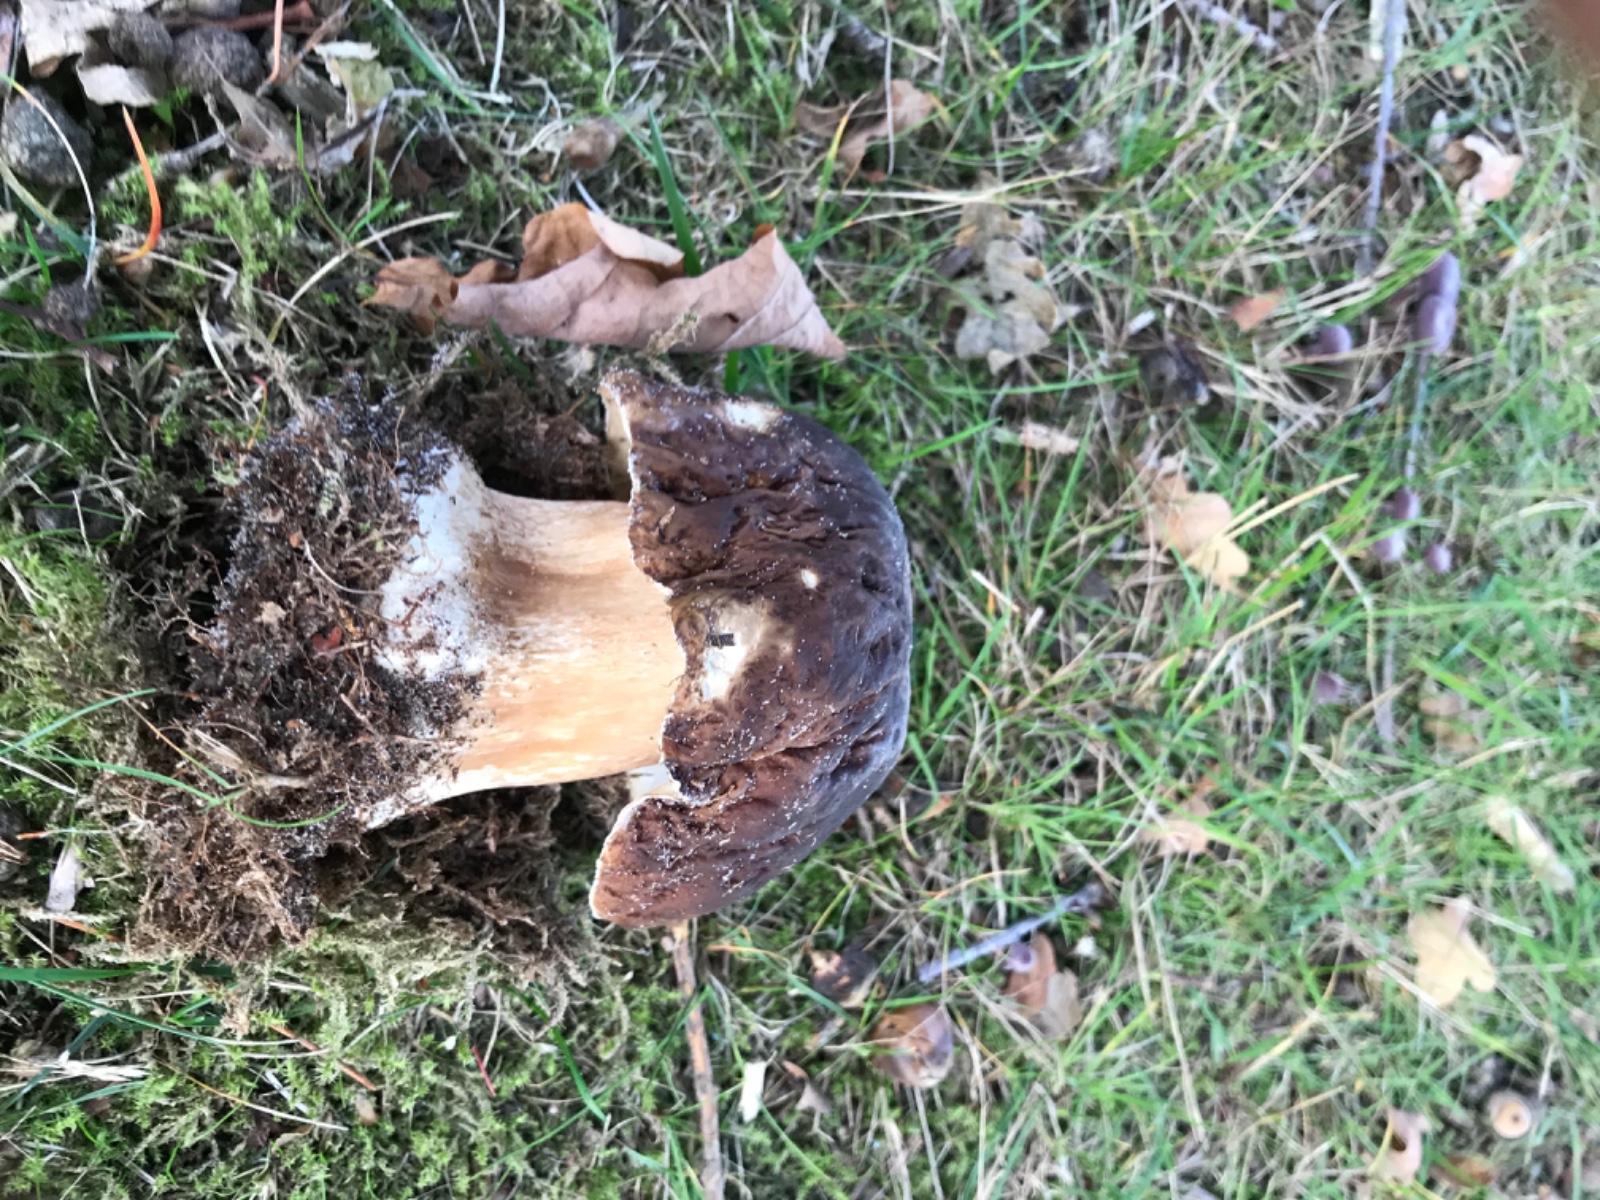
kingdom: Fungi
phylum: Basidiomycota
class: Agaricomycetes
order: Boletales
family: Boletaceae
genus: Boletus
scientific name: Boletus edulis
